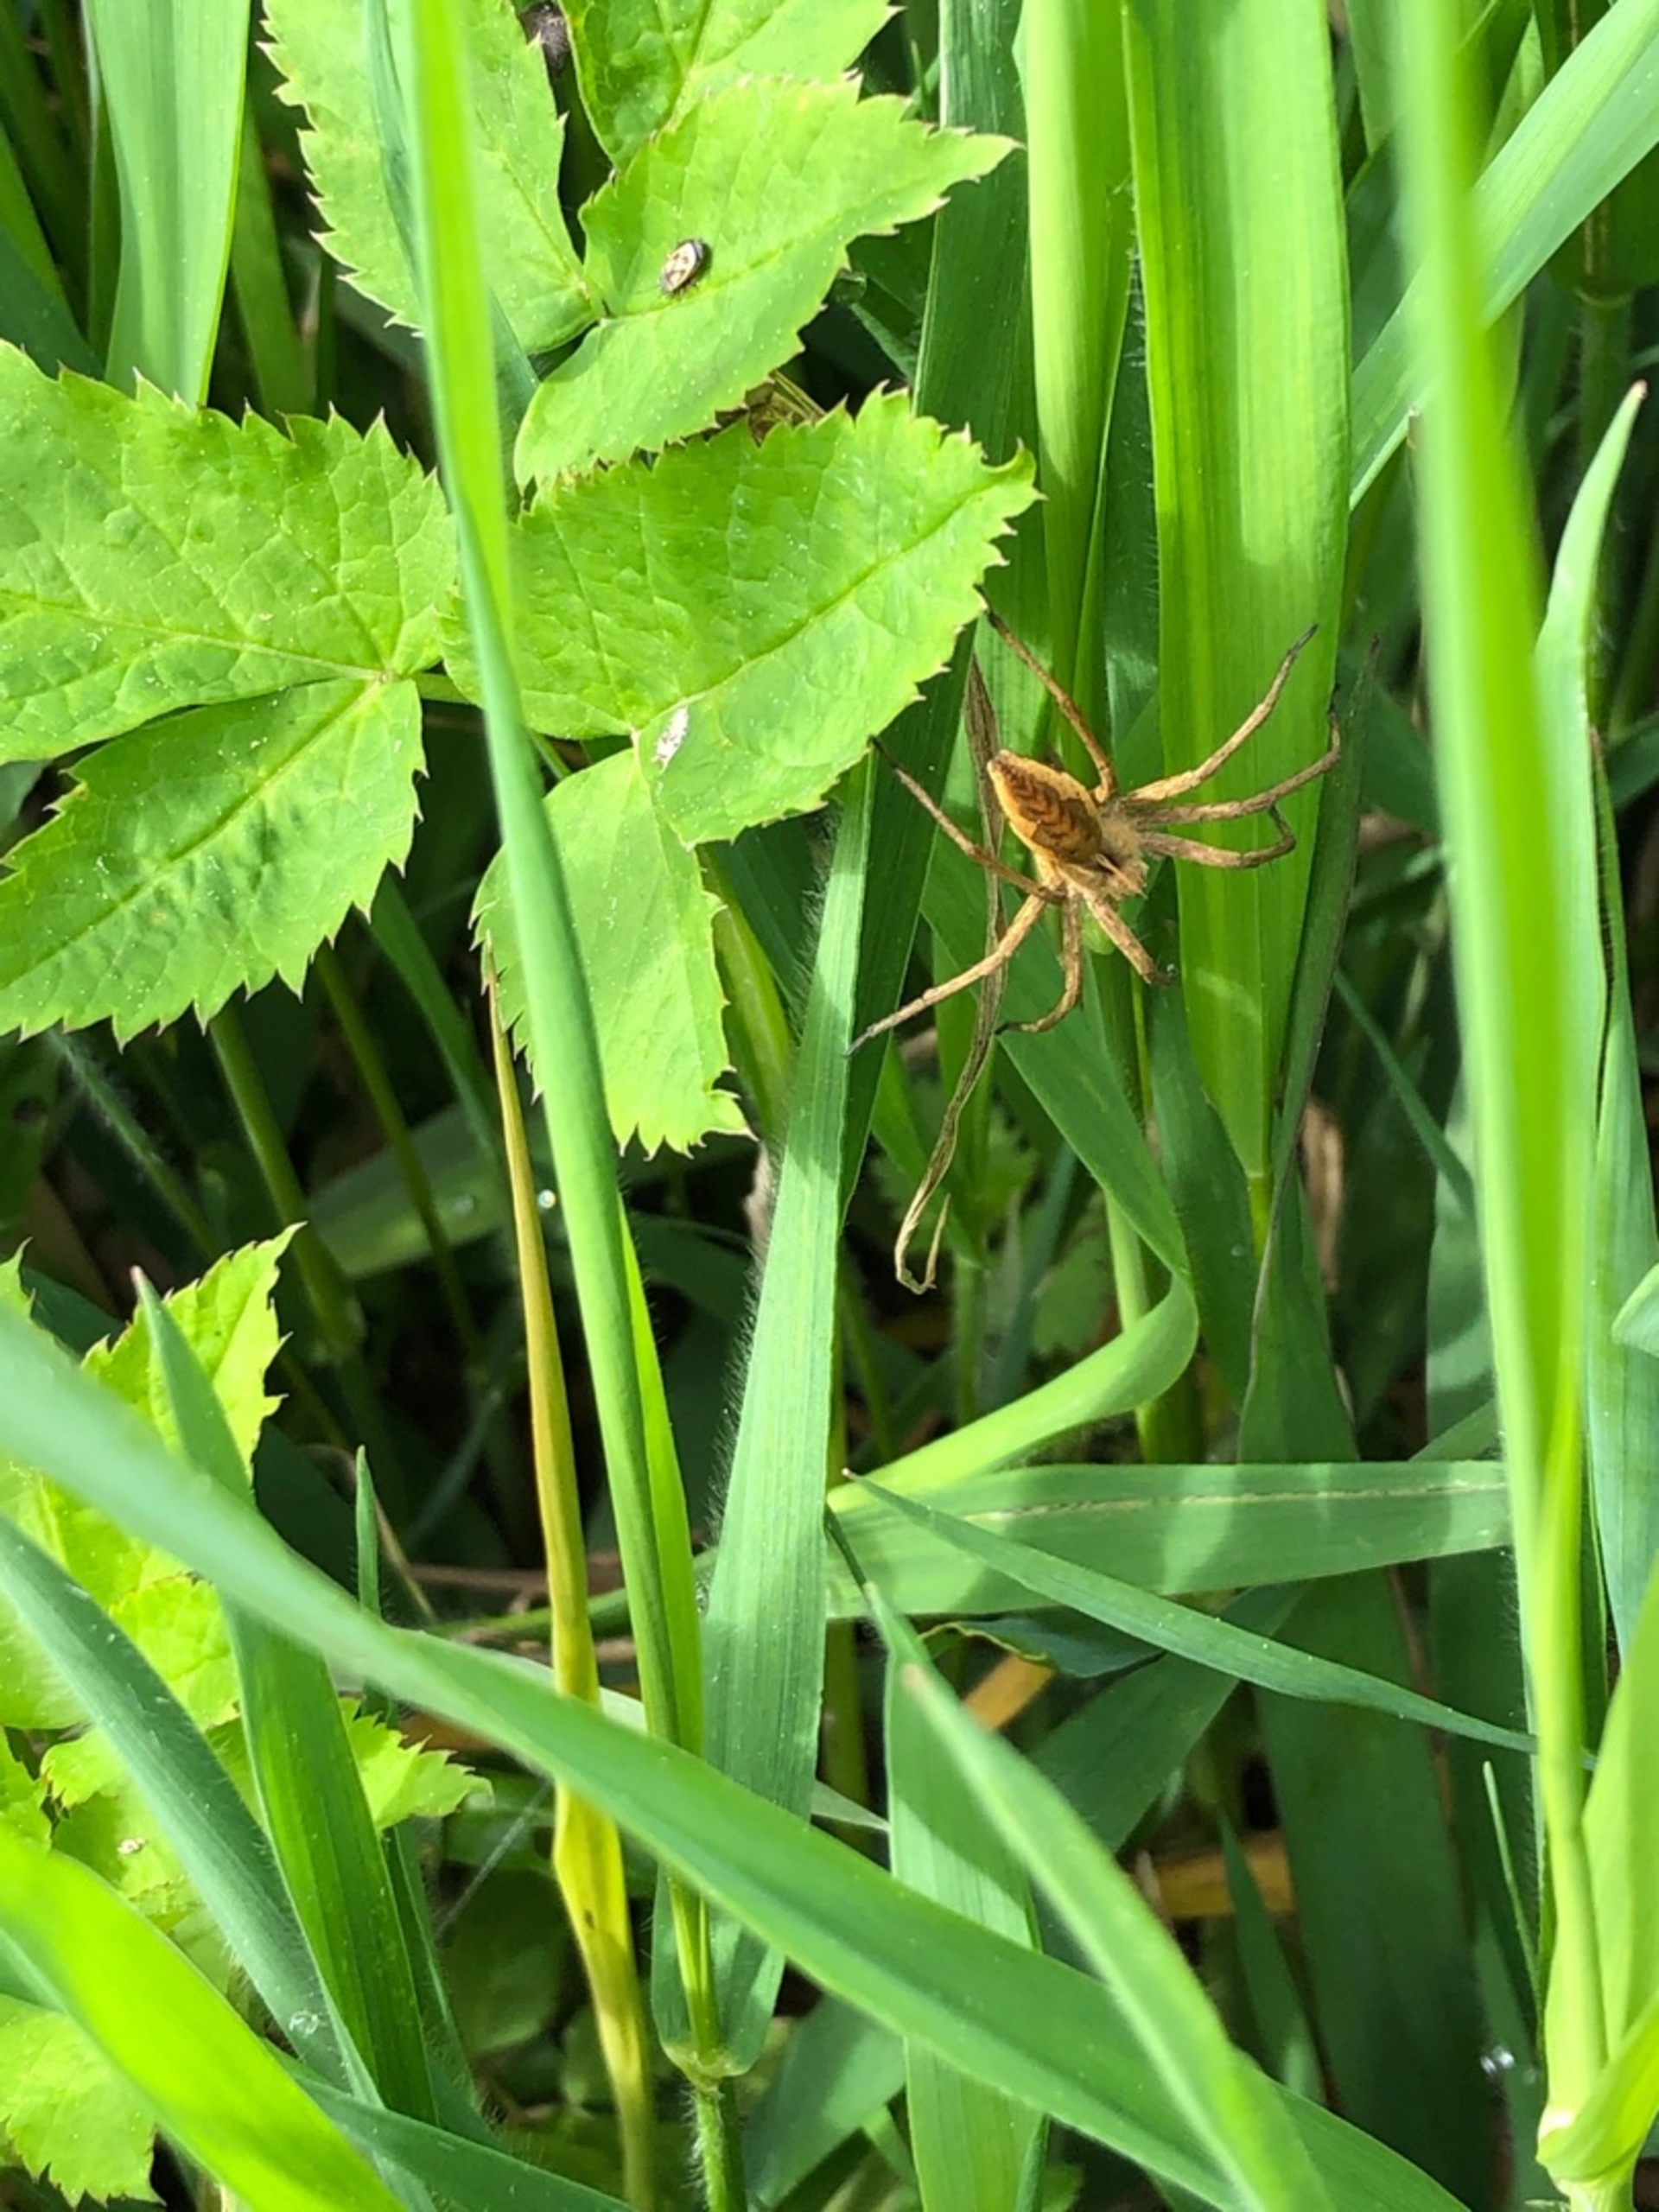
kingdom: Animalia
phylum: Arthropoda
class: Arachnida
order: Araneae
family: Pisauridae
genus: Pisaura
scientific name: Pisaura mirabilis
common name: Almindelig rovedderkop
